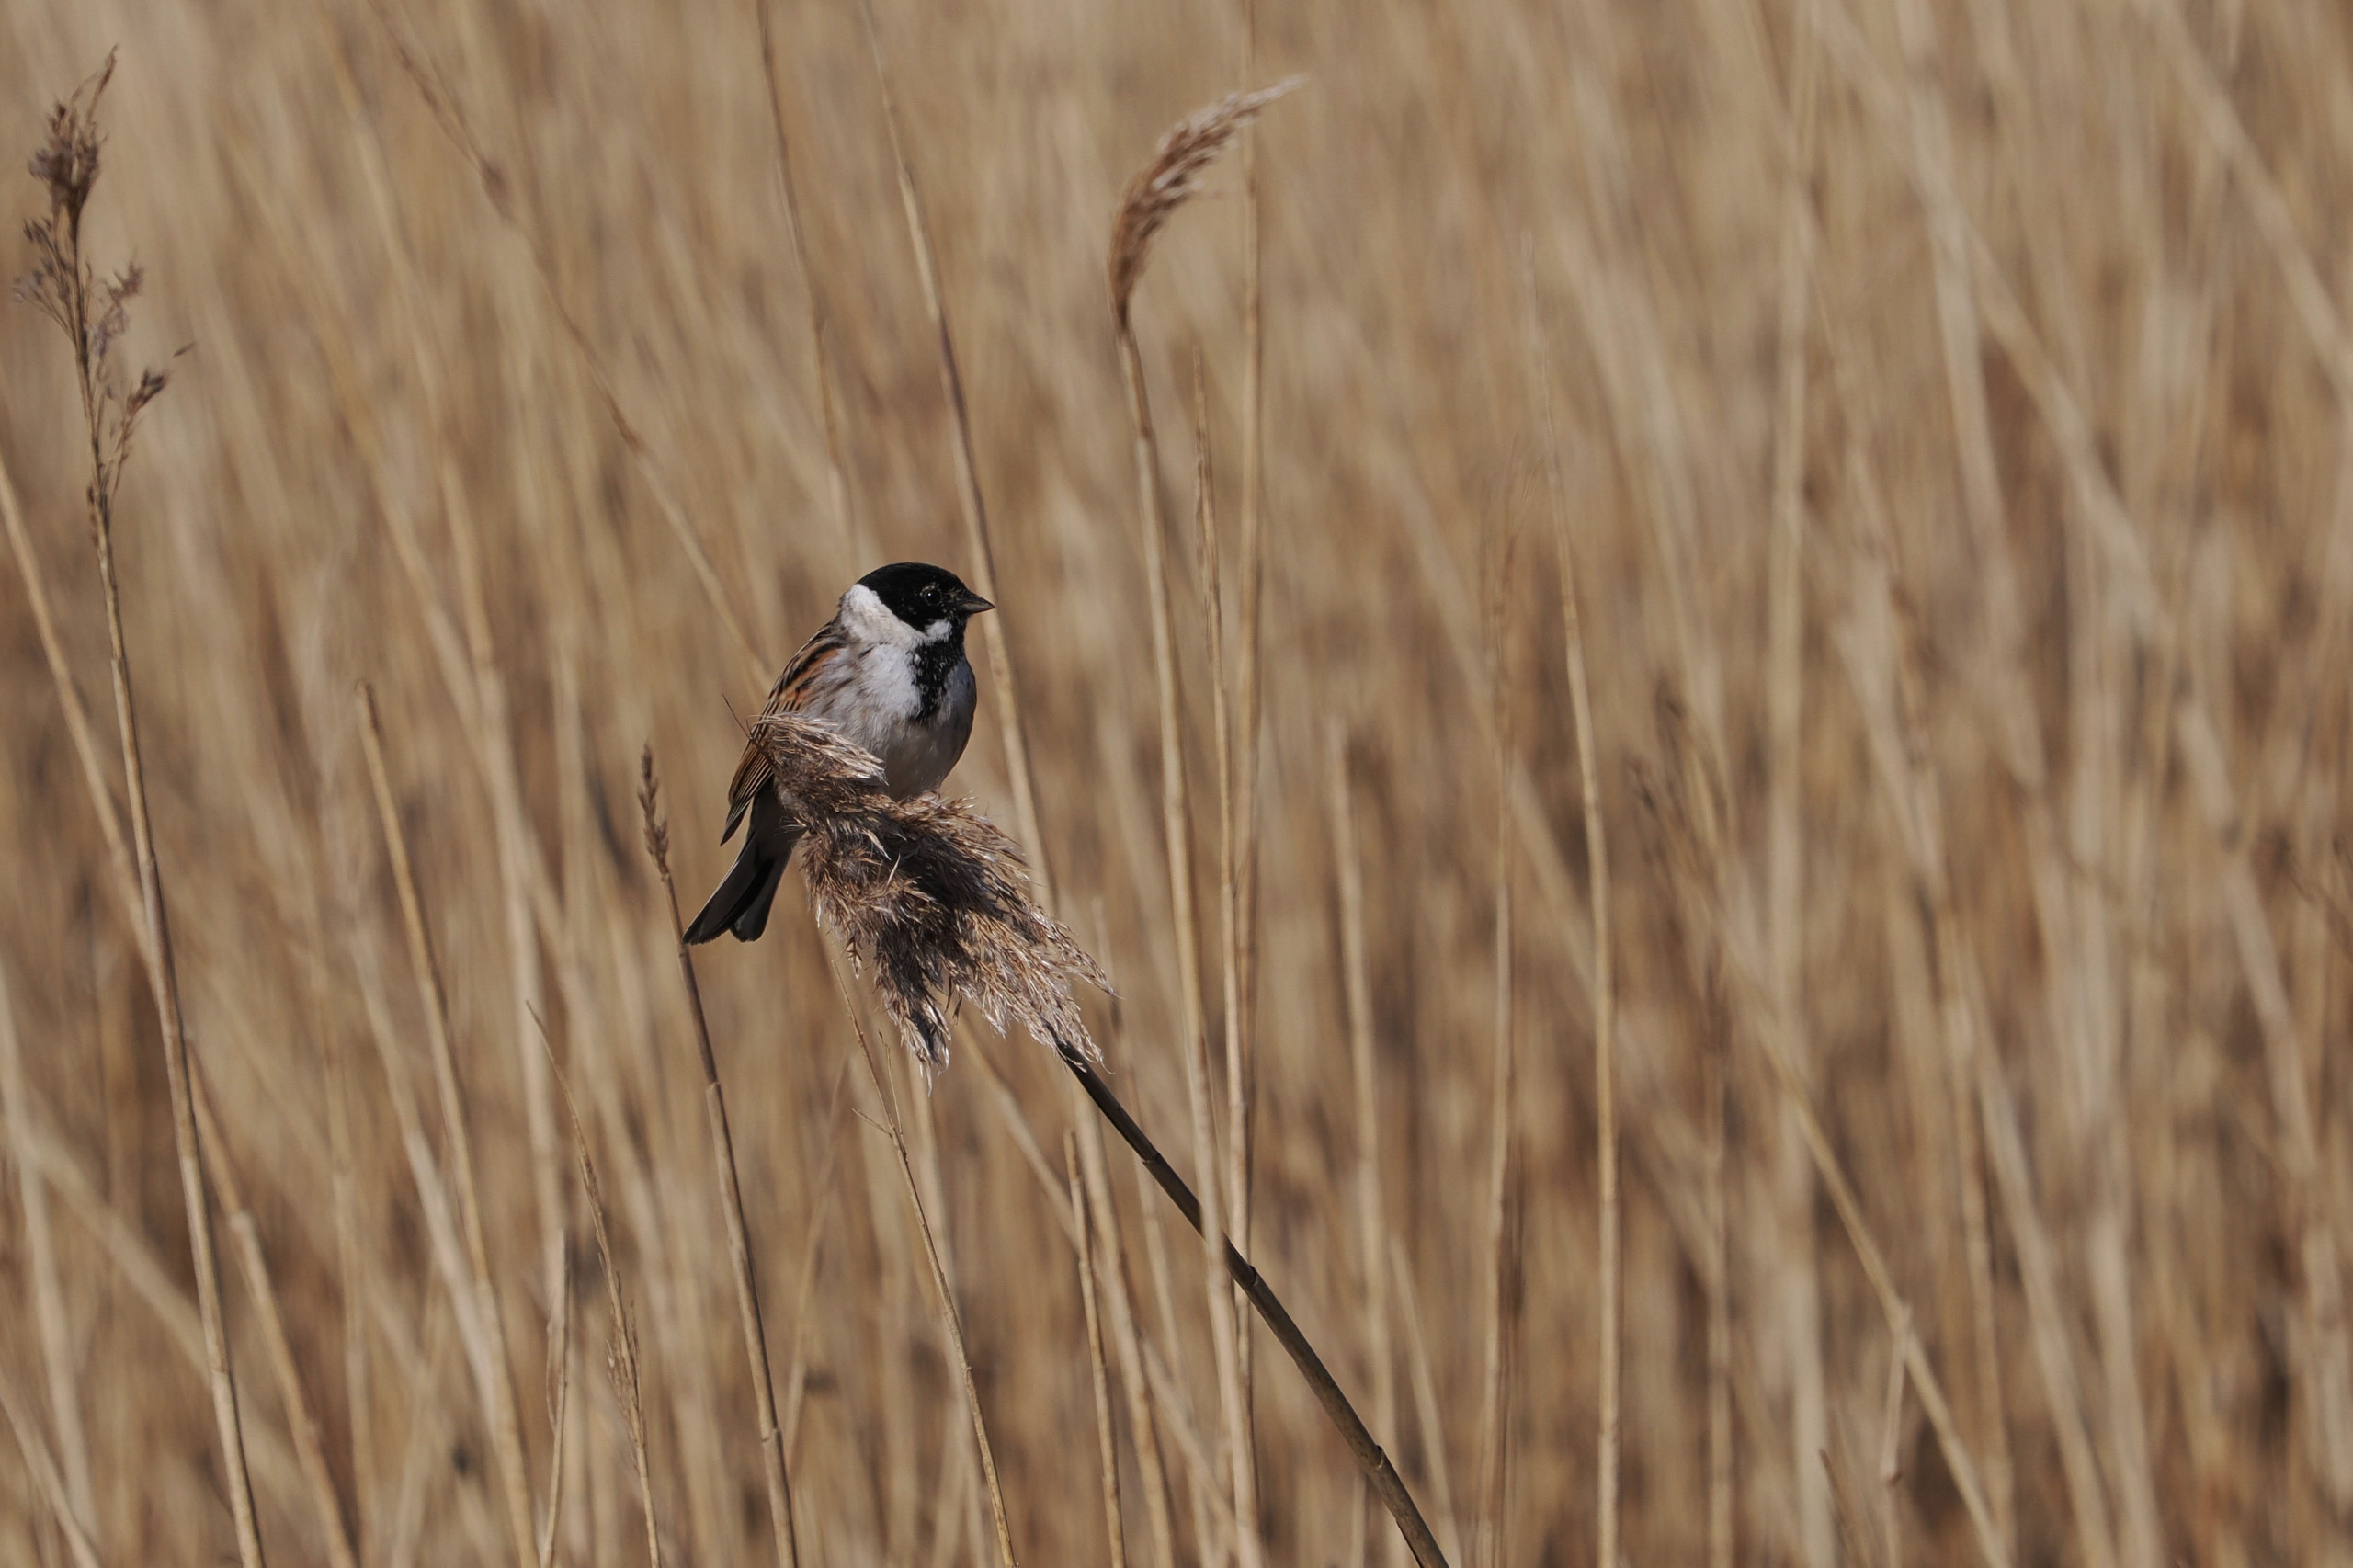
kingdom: Animalia
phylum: Chordata
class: Aves
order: Passeriformes
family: Emberizidae
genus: Emberiza
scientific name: Emberiza schoeniclus
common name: Rørspurv
